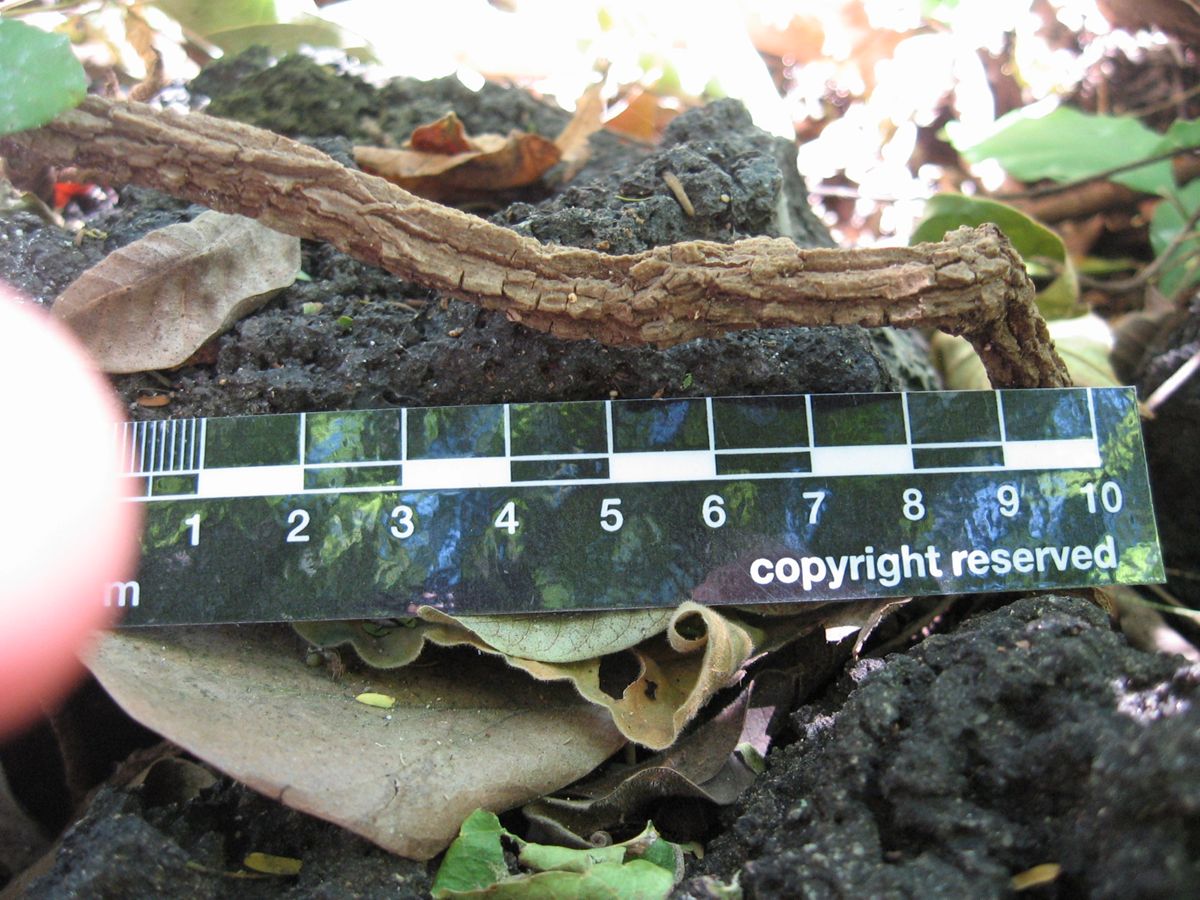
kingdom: Plantae
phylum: Tracheophyta
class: Magnoliopsida
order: Gentianales
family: Apocynaceae
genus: Ruehssia
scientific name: Ruehssia trivirgulata
